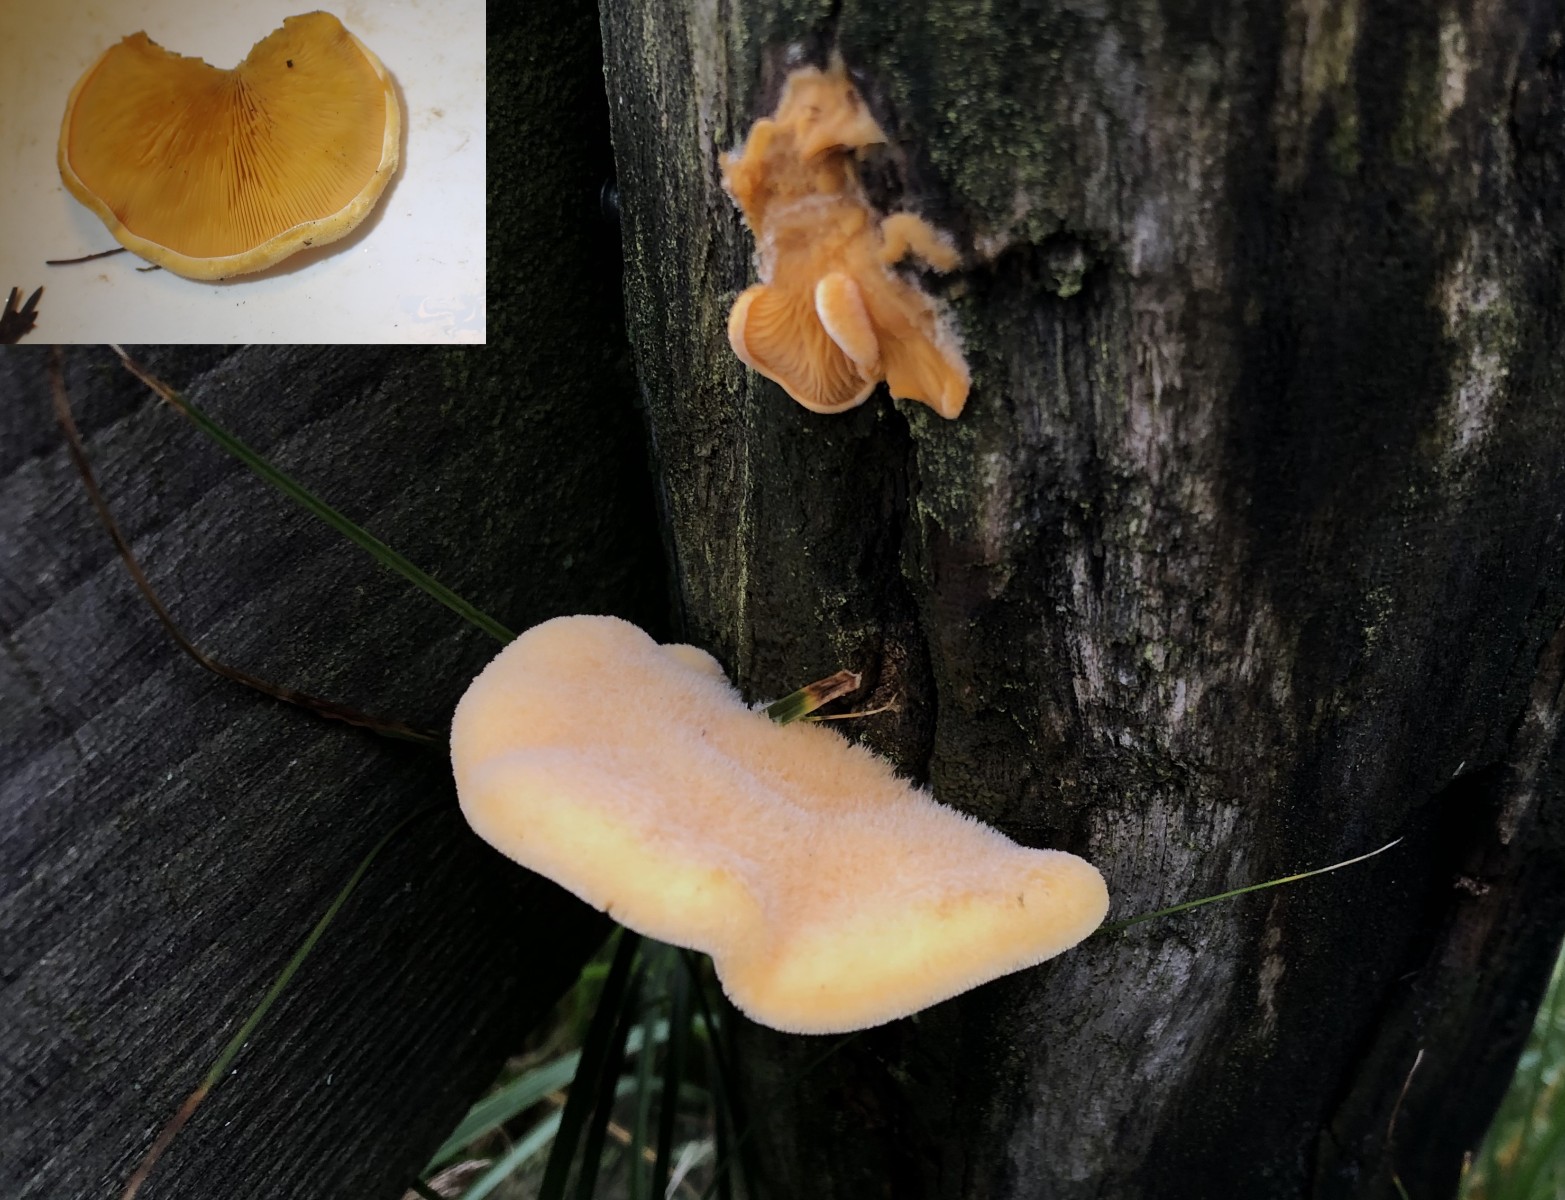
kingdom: Fungi
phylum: Basidiomycota
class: Agaricomycetes
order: Agaricales
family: Phyllotopsidaceae
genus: Phyllotopsis
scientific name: Phyllotopsis nidulans
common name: okkerblad
